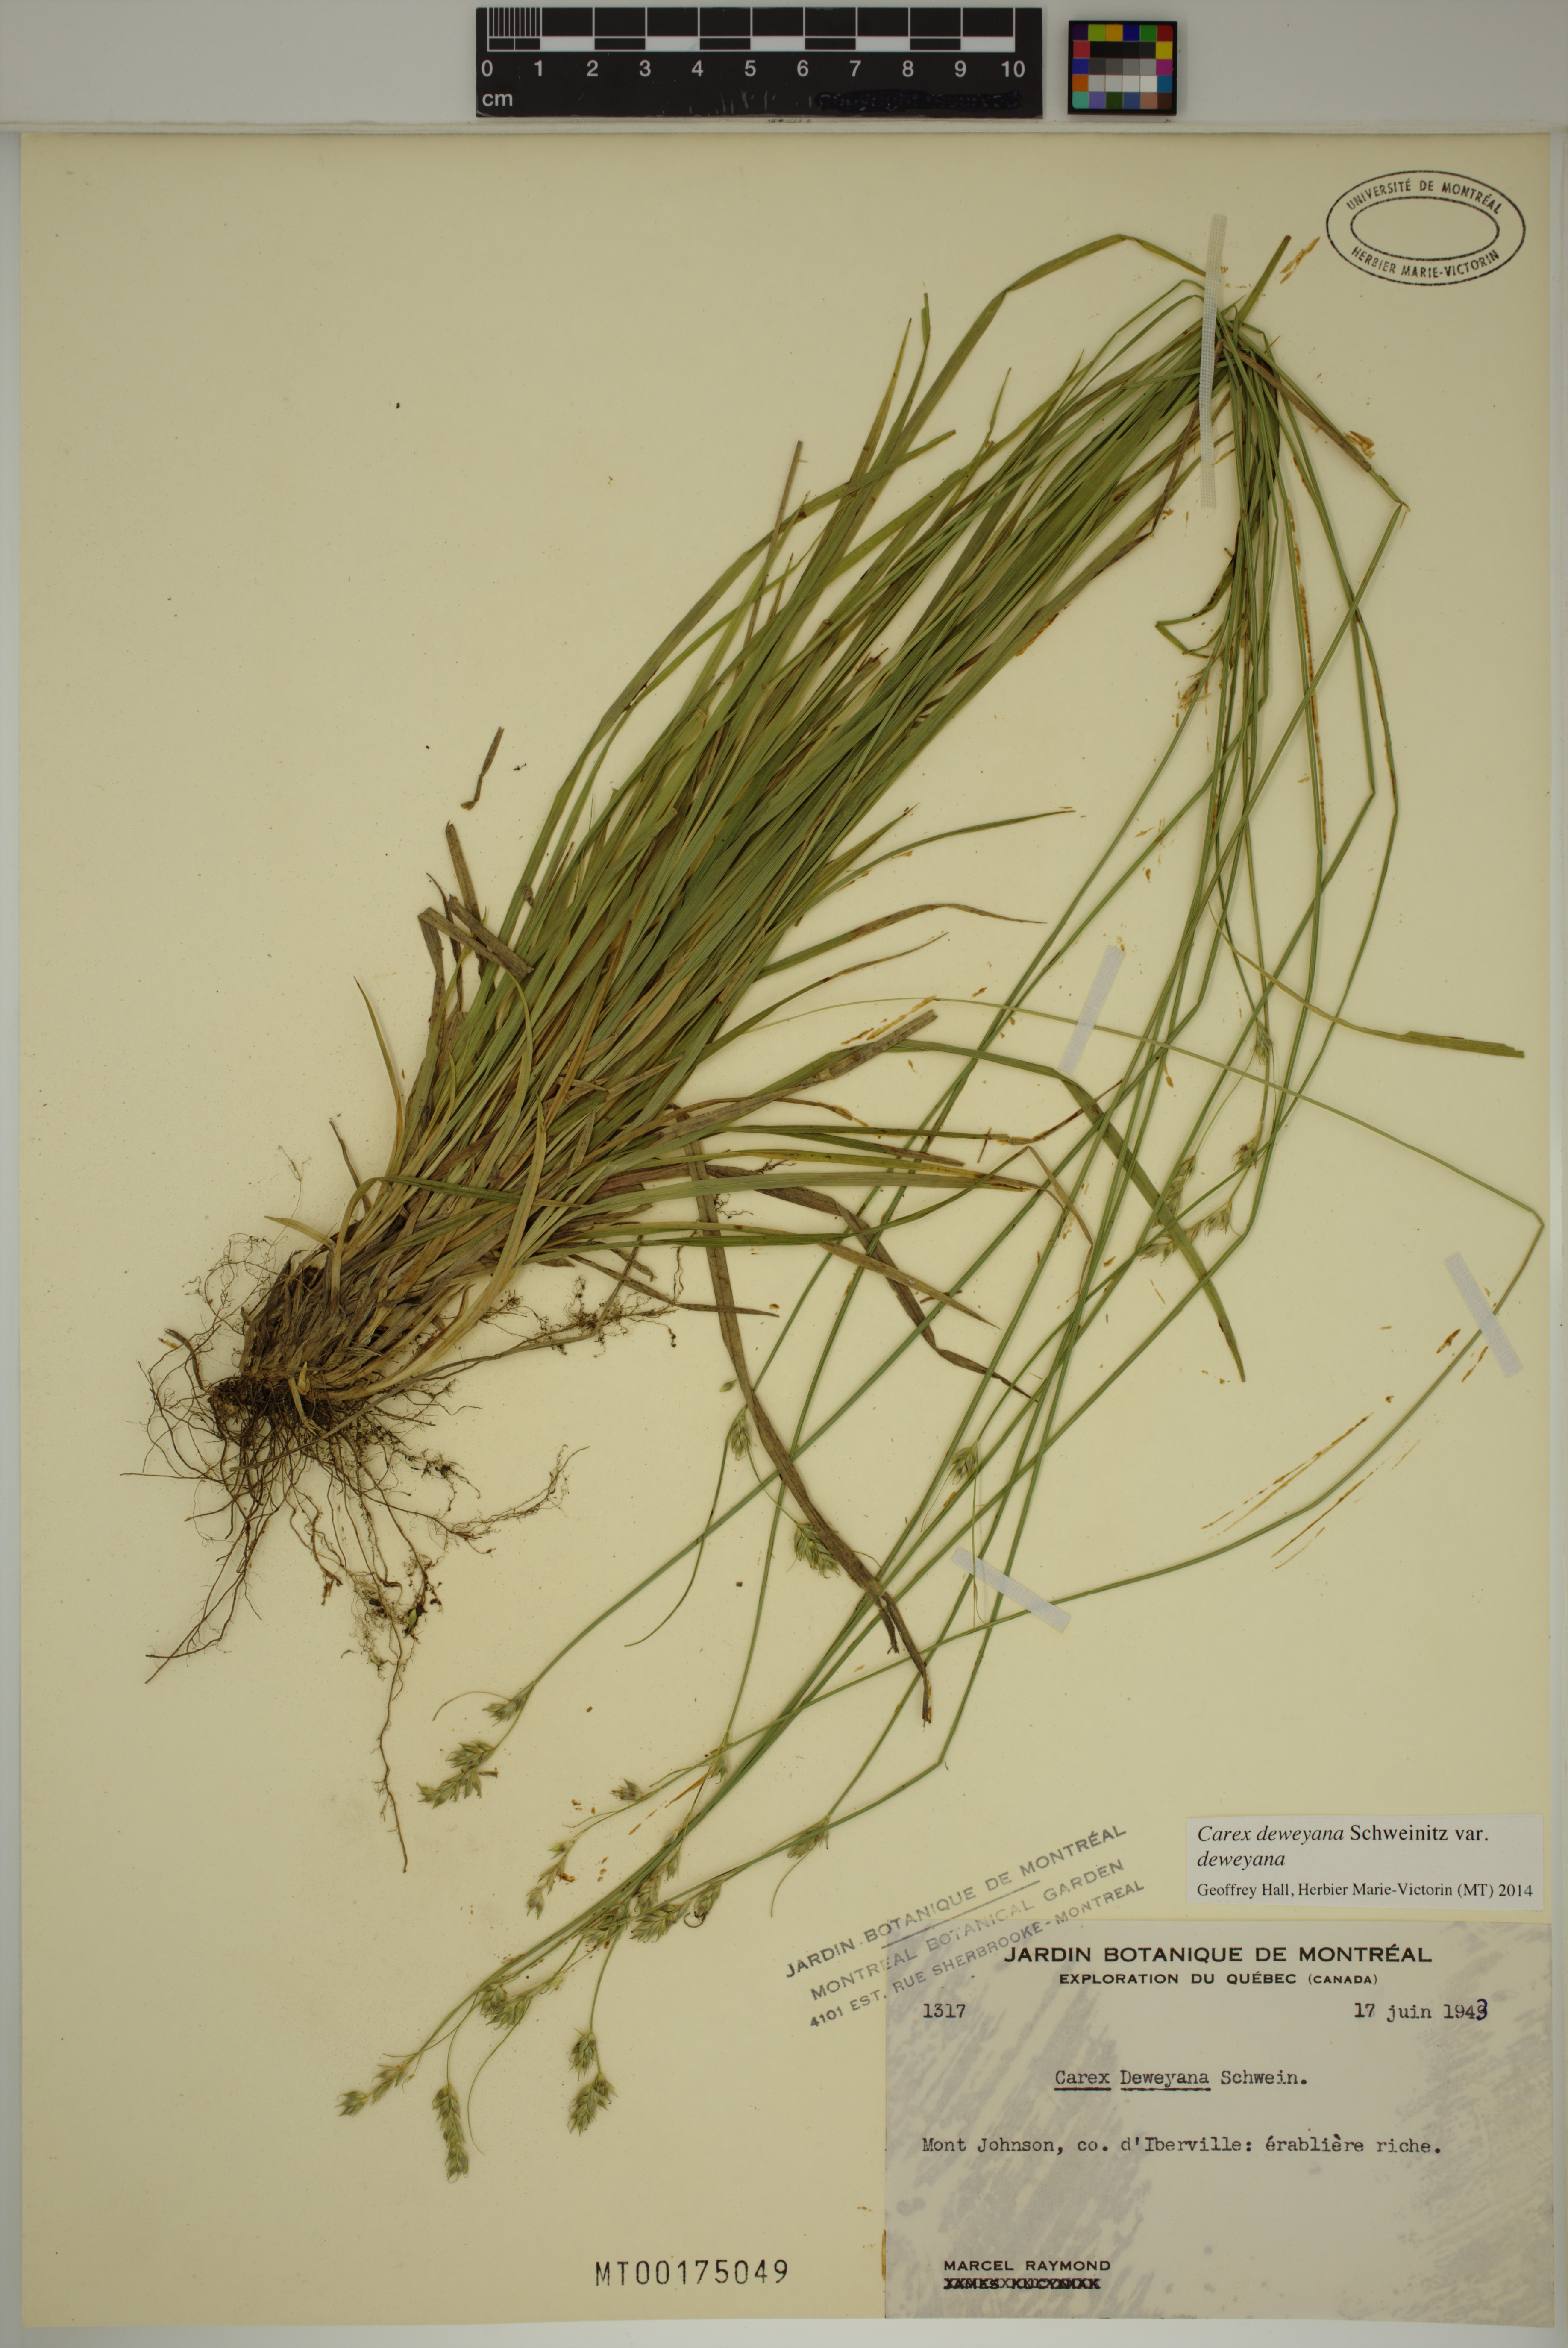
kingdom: Plantae
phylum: Tracheophyta
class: Liliopsida
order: Poales
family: Cyperaceae
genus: Carex
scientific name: Carex deweyana
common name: Dewey's sedge
